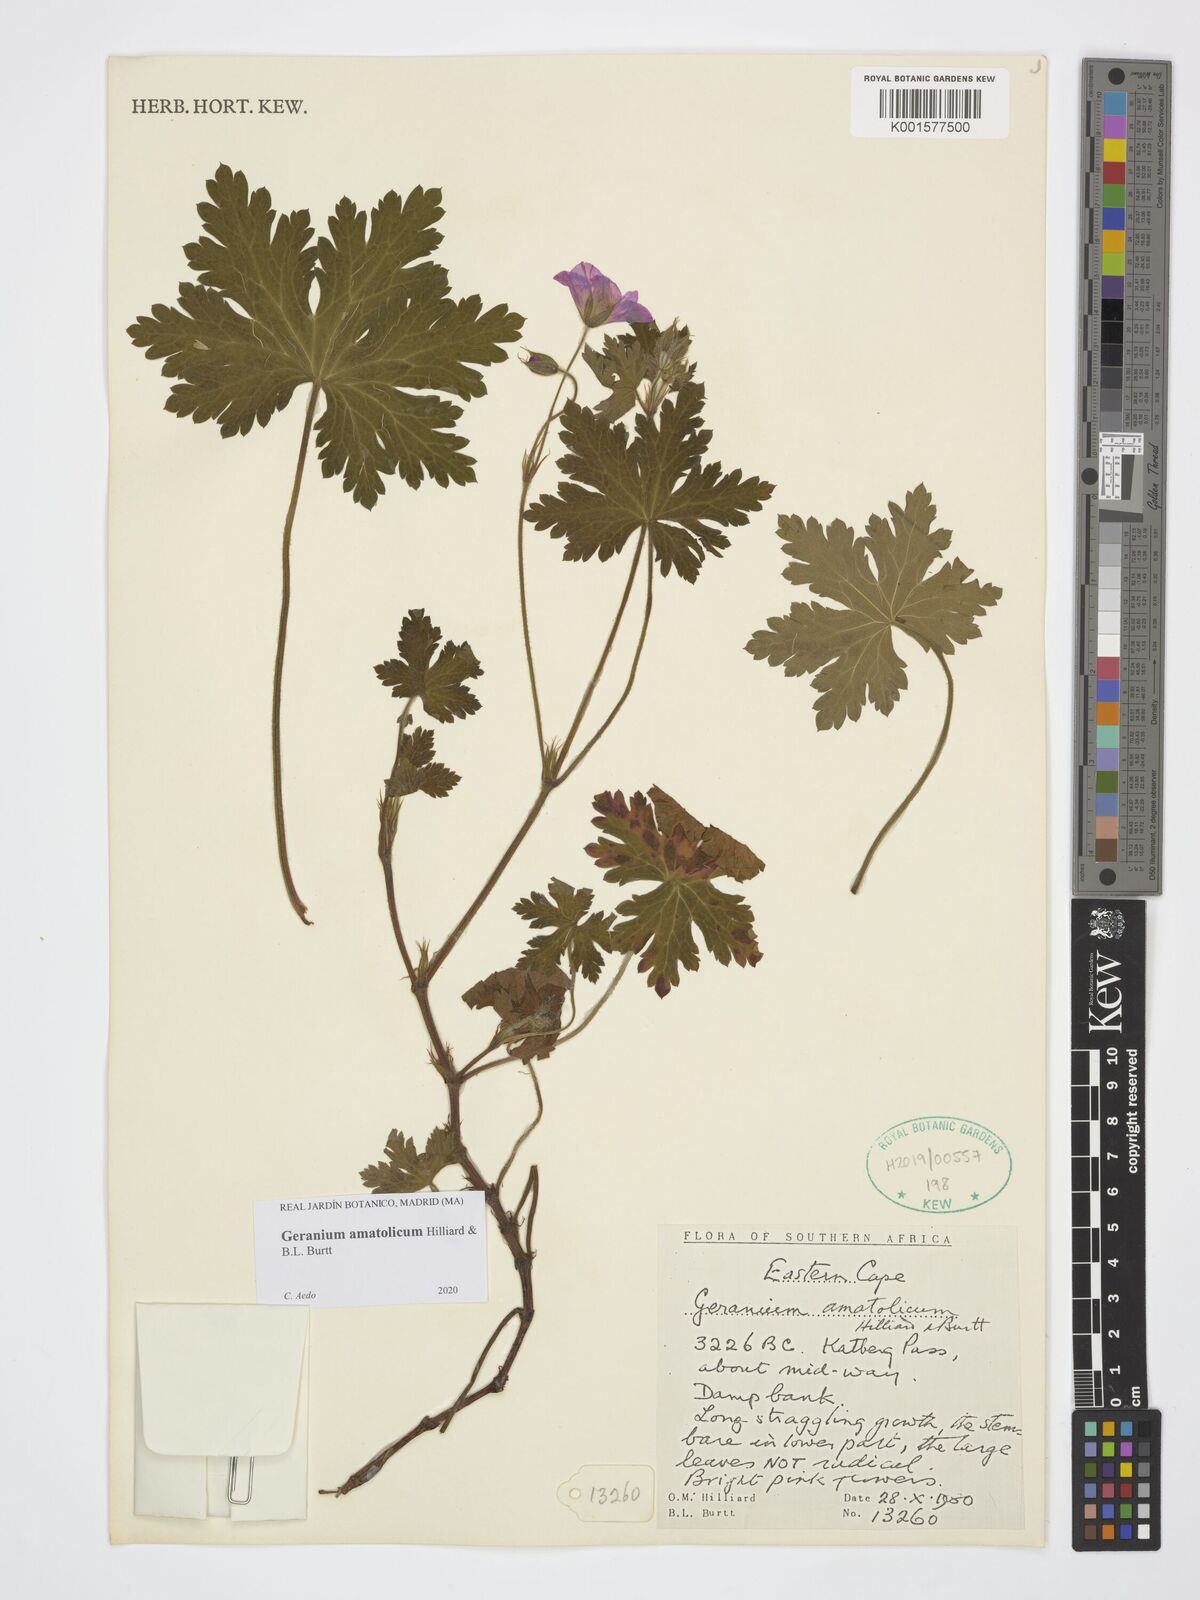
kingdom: Plantae
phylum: Tracheophyta
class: Magnoliopsida
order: Geraniales
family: Geraniaceae
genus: Geranium
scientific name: Geranium amatolicum
